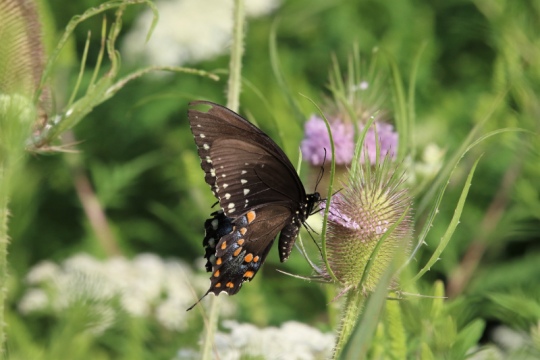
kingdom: Animalia
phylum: Arthropoda
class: Insecta
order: Lepidoptera
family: Papilionidae
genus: Pterourus
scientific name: Pterourus troilus
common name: Spicebush Swallowtail
